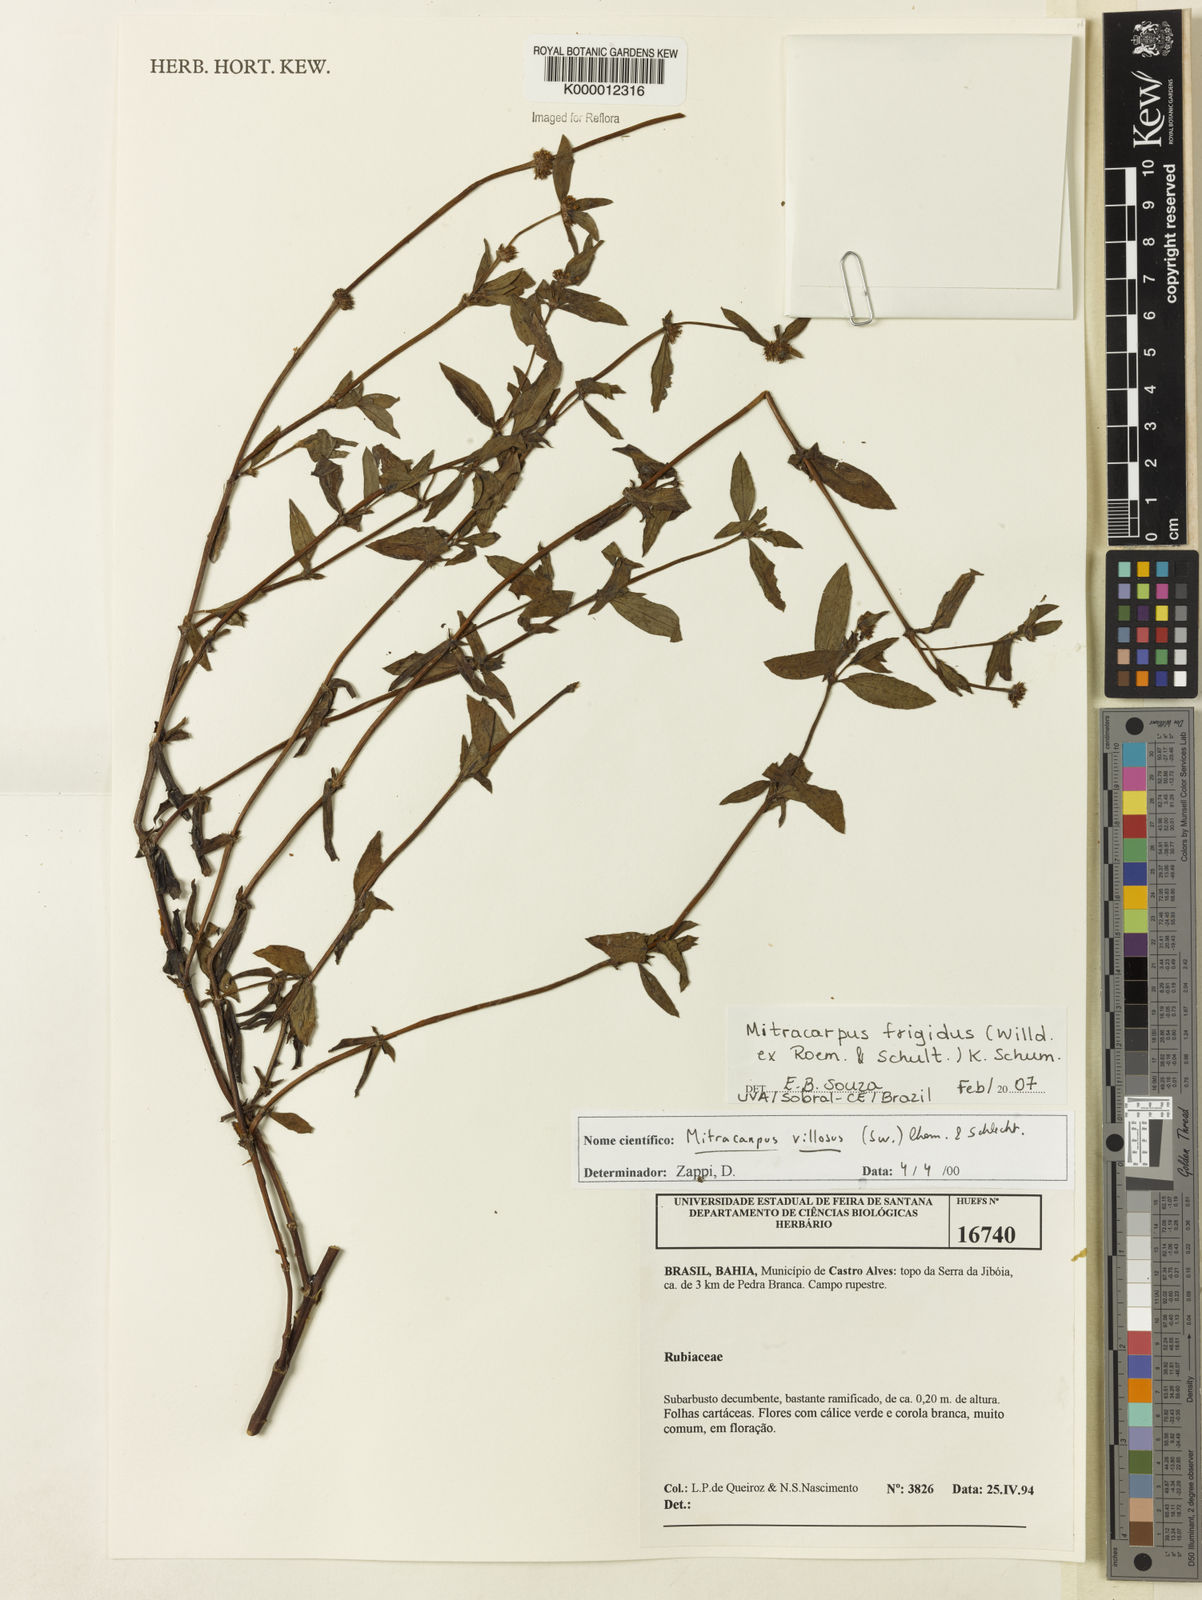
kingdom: Plantae
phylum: Tracheophyta
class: Magnoliopsida
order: Gentianales
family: Rubiaceae
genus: Mitracarpus
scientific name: Mitracarpus frigidus
